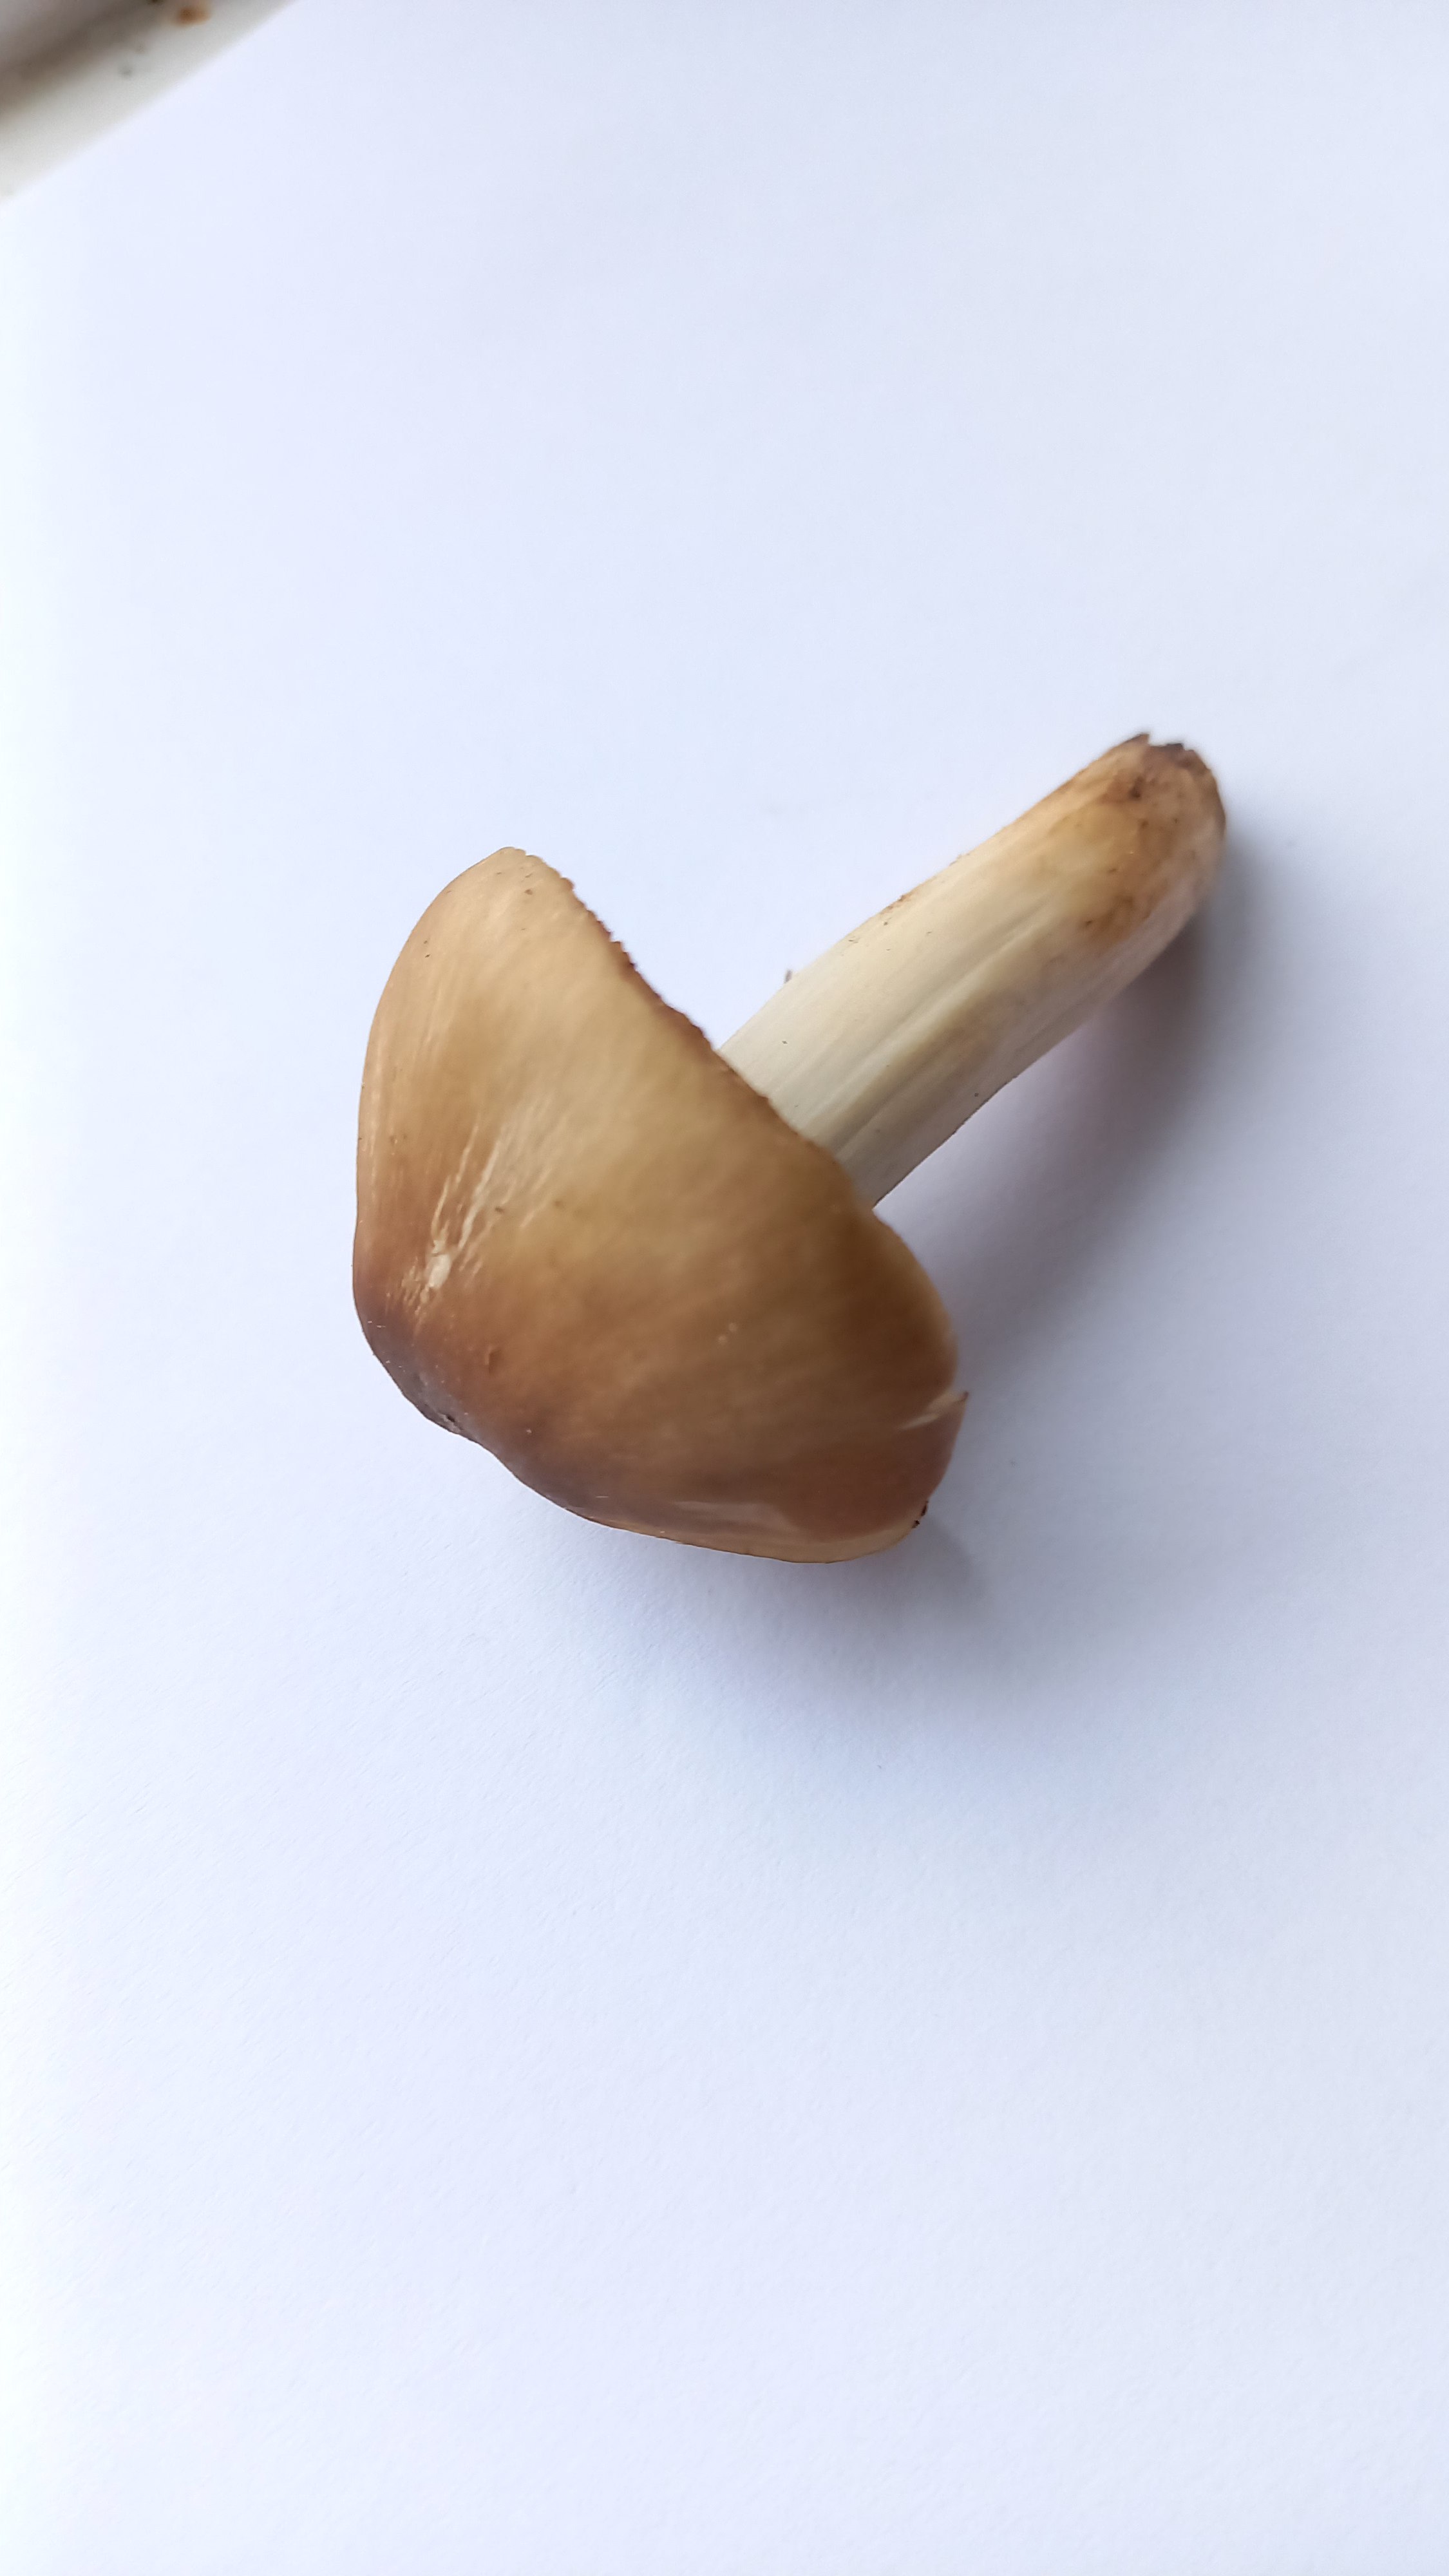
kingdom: Fungi
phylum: Basidiomycota
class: Agaricomycetes
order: Agaricales
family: Entolomataceae
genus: Entoloma
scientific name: Entoloma prunuloides
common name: mel-rødblad
